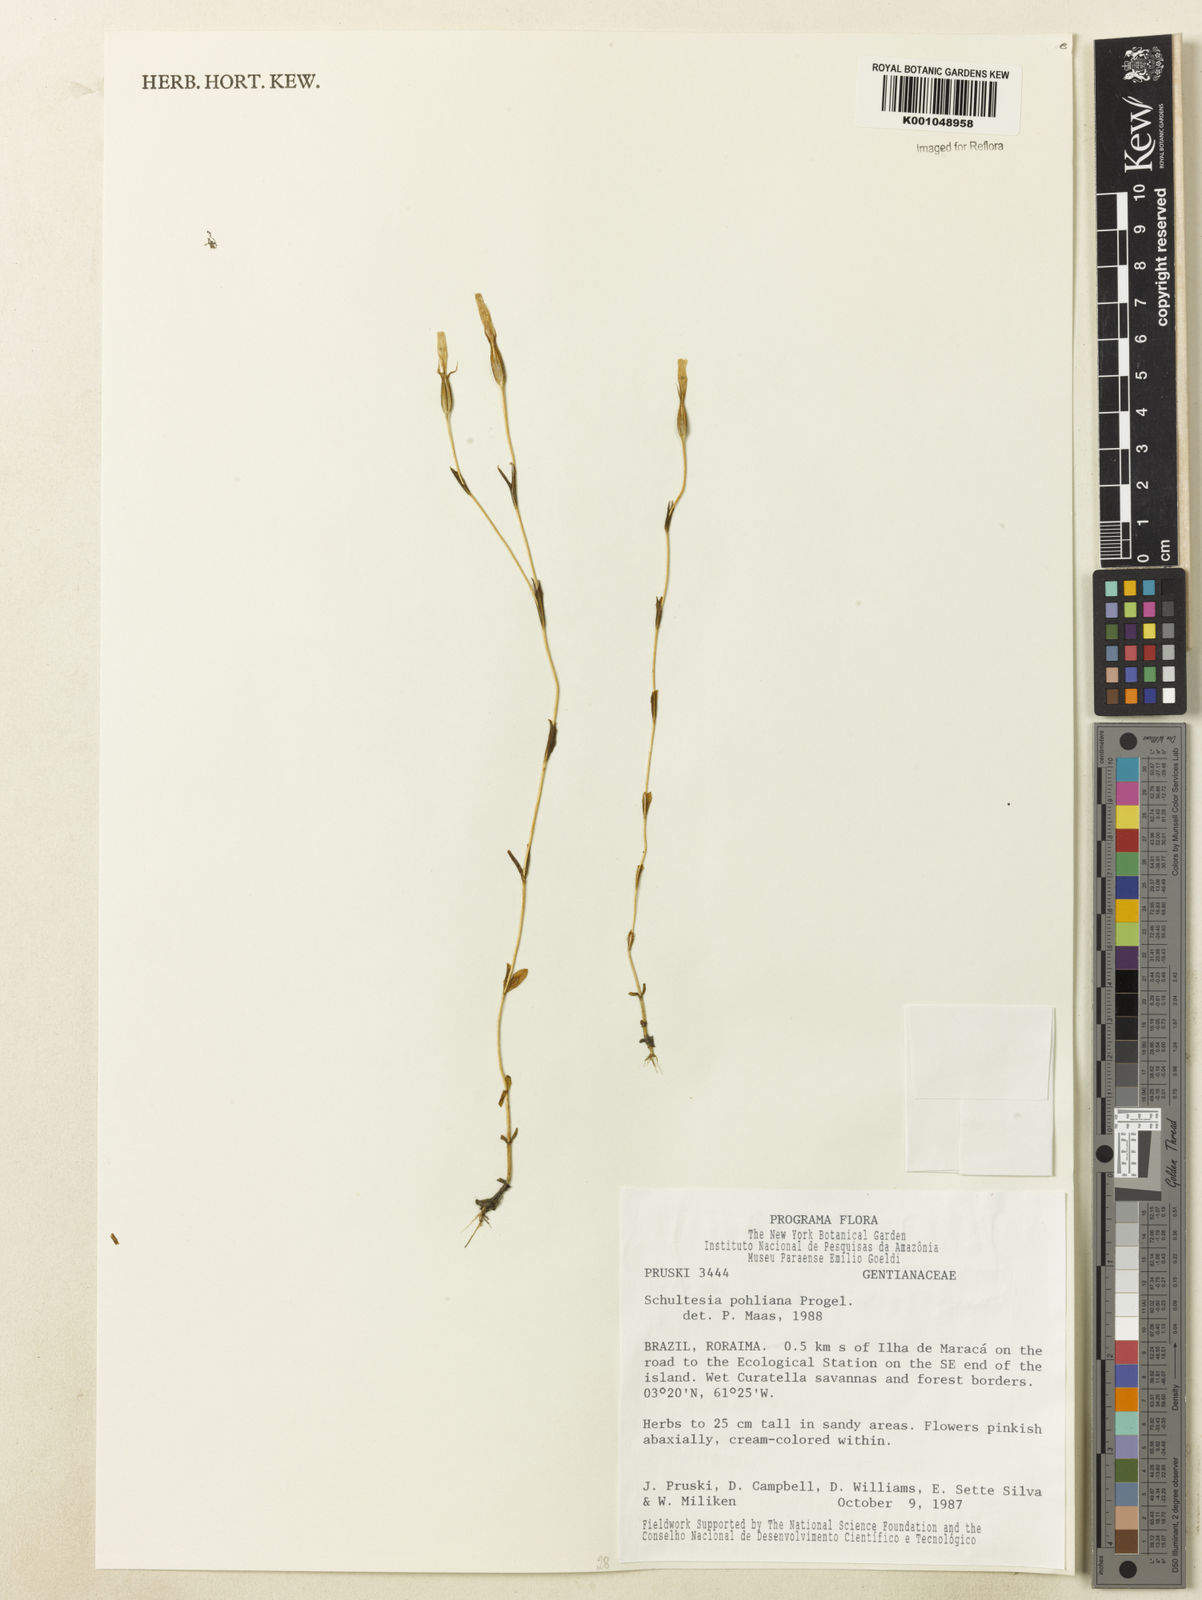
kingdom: Plantae
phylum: Tracheophyta
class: Magnoliopsida
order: Gentianales
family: Gentianaceae
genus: Schultesia
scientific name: Schultesia pohliana
